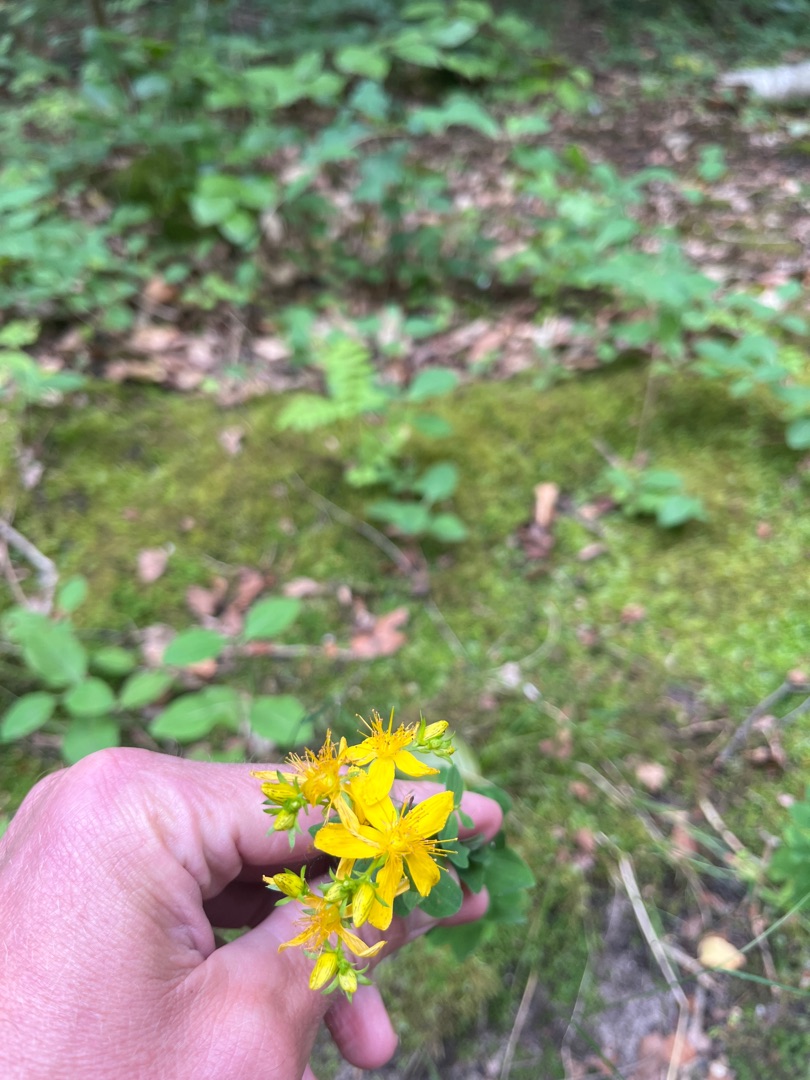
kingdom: Plantae
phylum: Tracheophyta
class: Magnoliopsida
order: Malpighiales
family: Hypericaceae
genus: Hypericum
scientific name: Hypericum perforatum
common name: Prikbladet perikon
